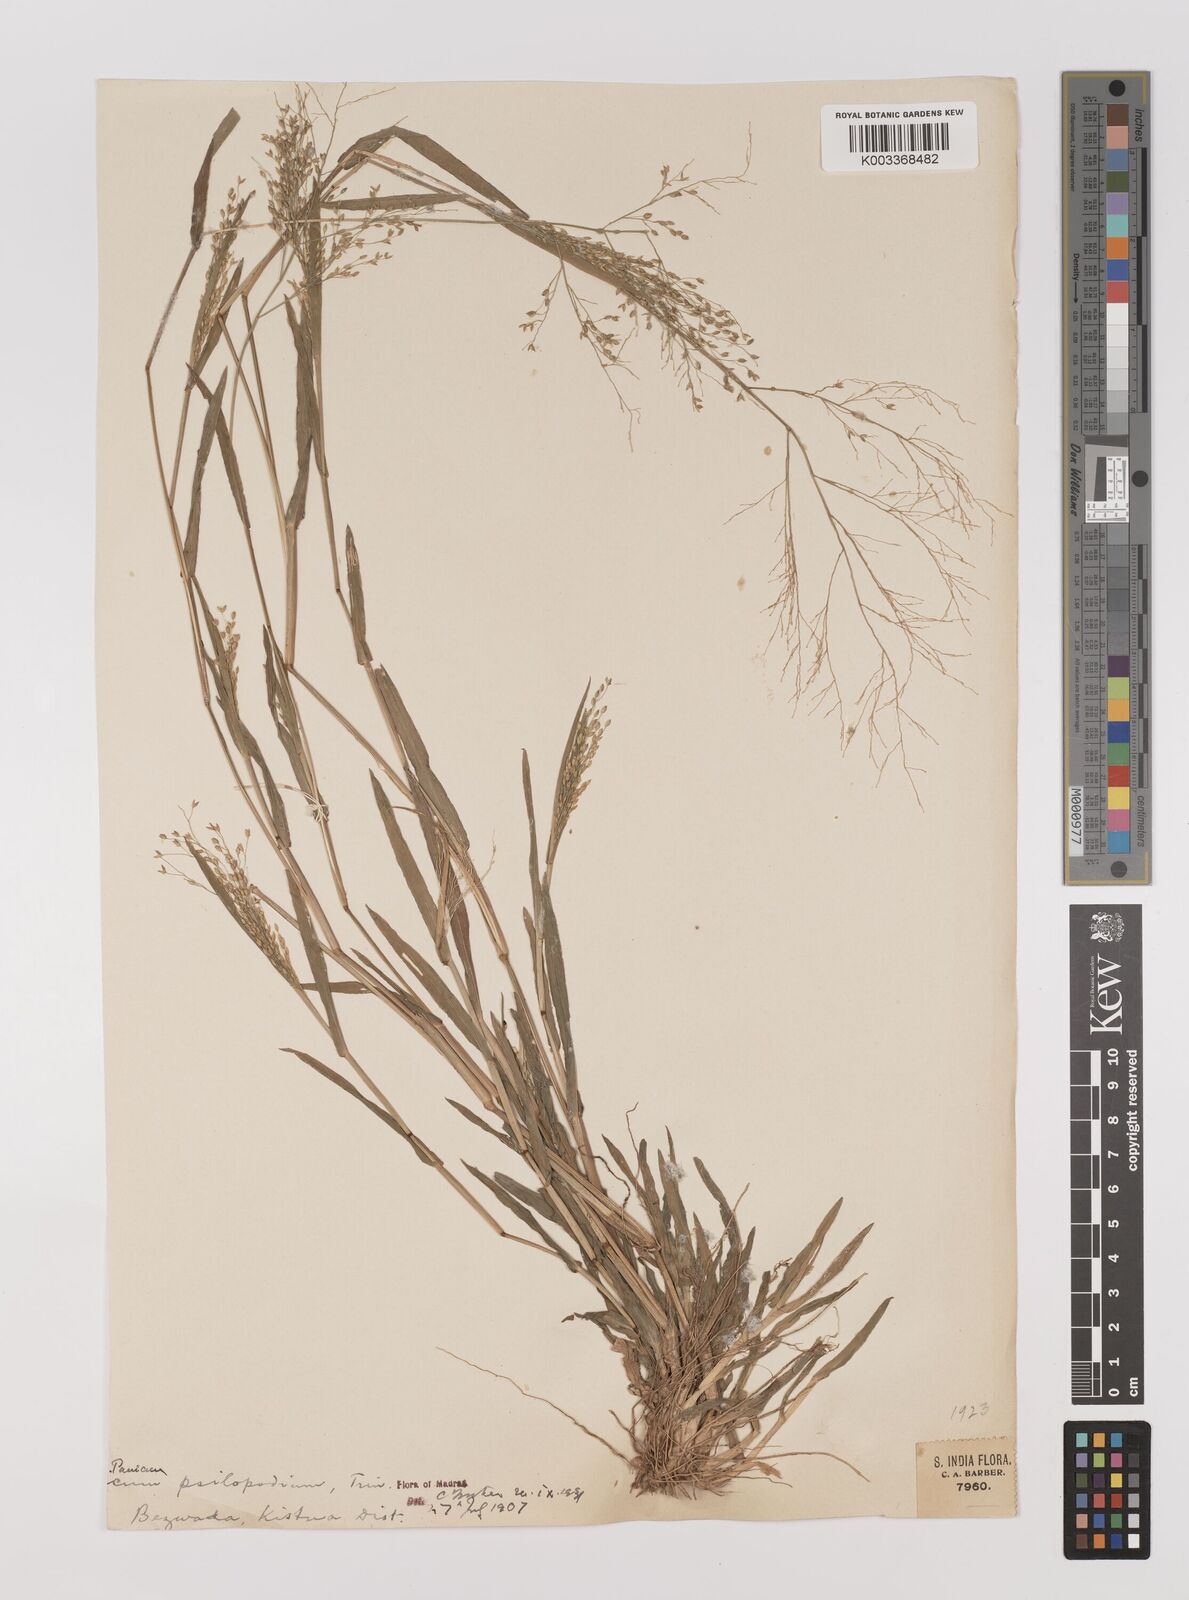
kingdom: Plantae
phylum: Tracheophyta
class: Liliopsida
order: Poales
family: Poaceae
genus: Panicum
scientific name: Panicum sumatrense
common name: Little millet
